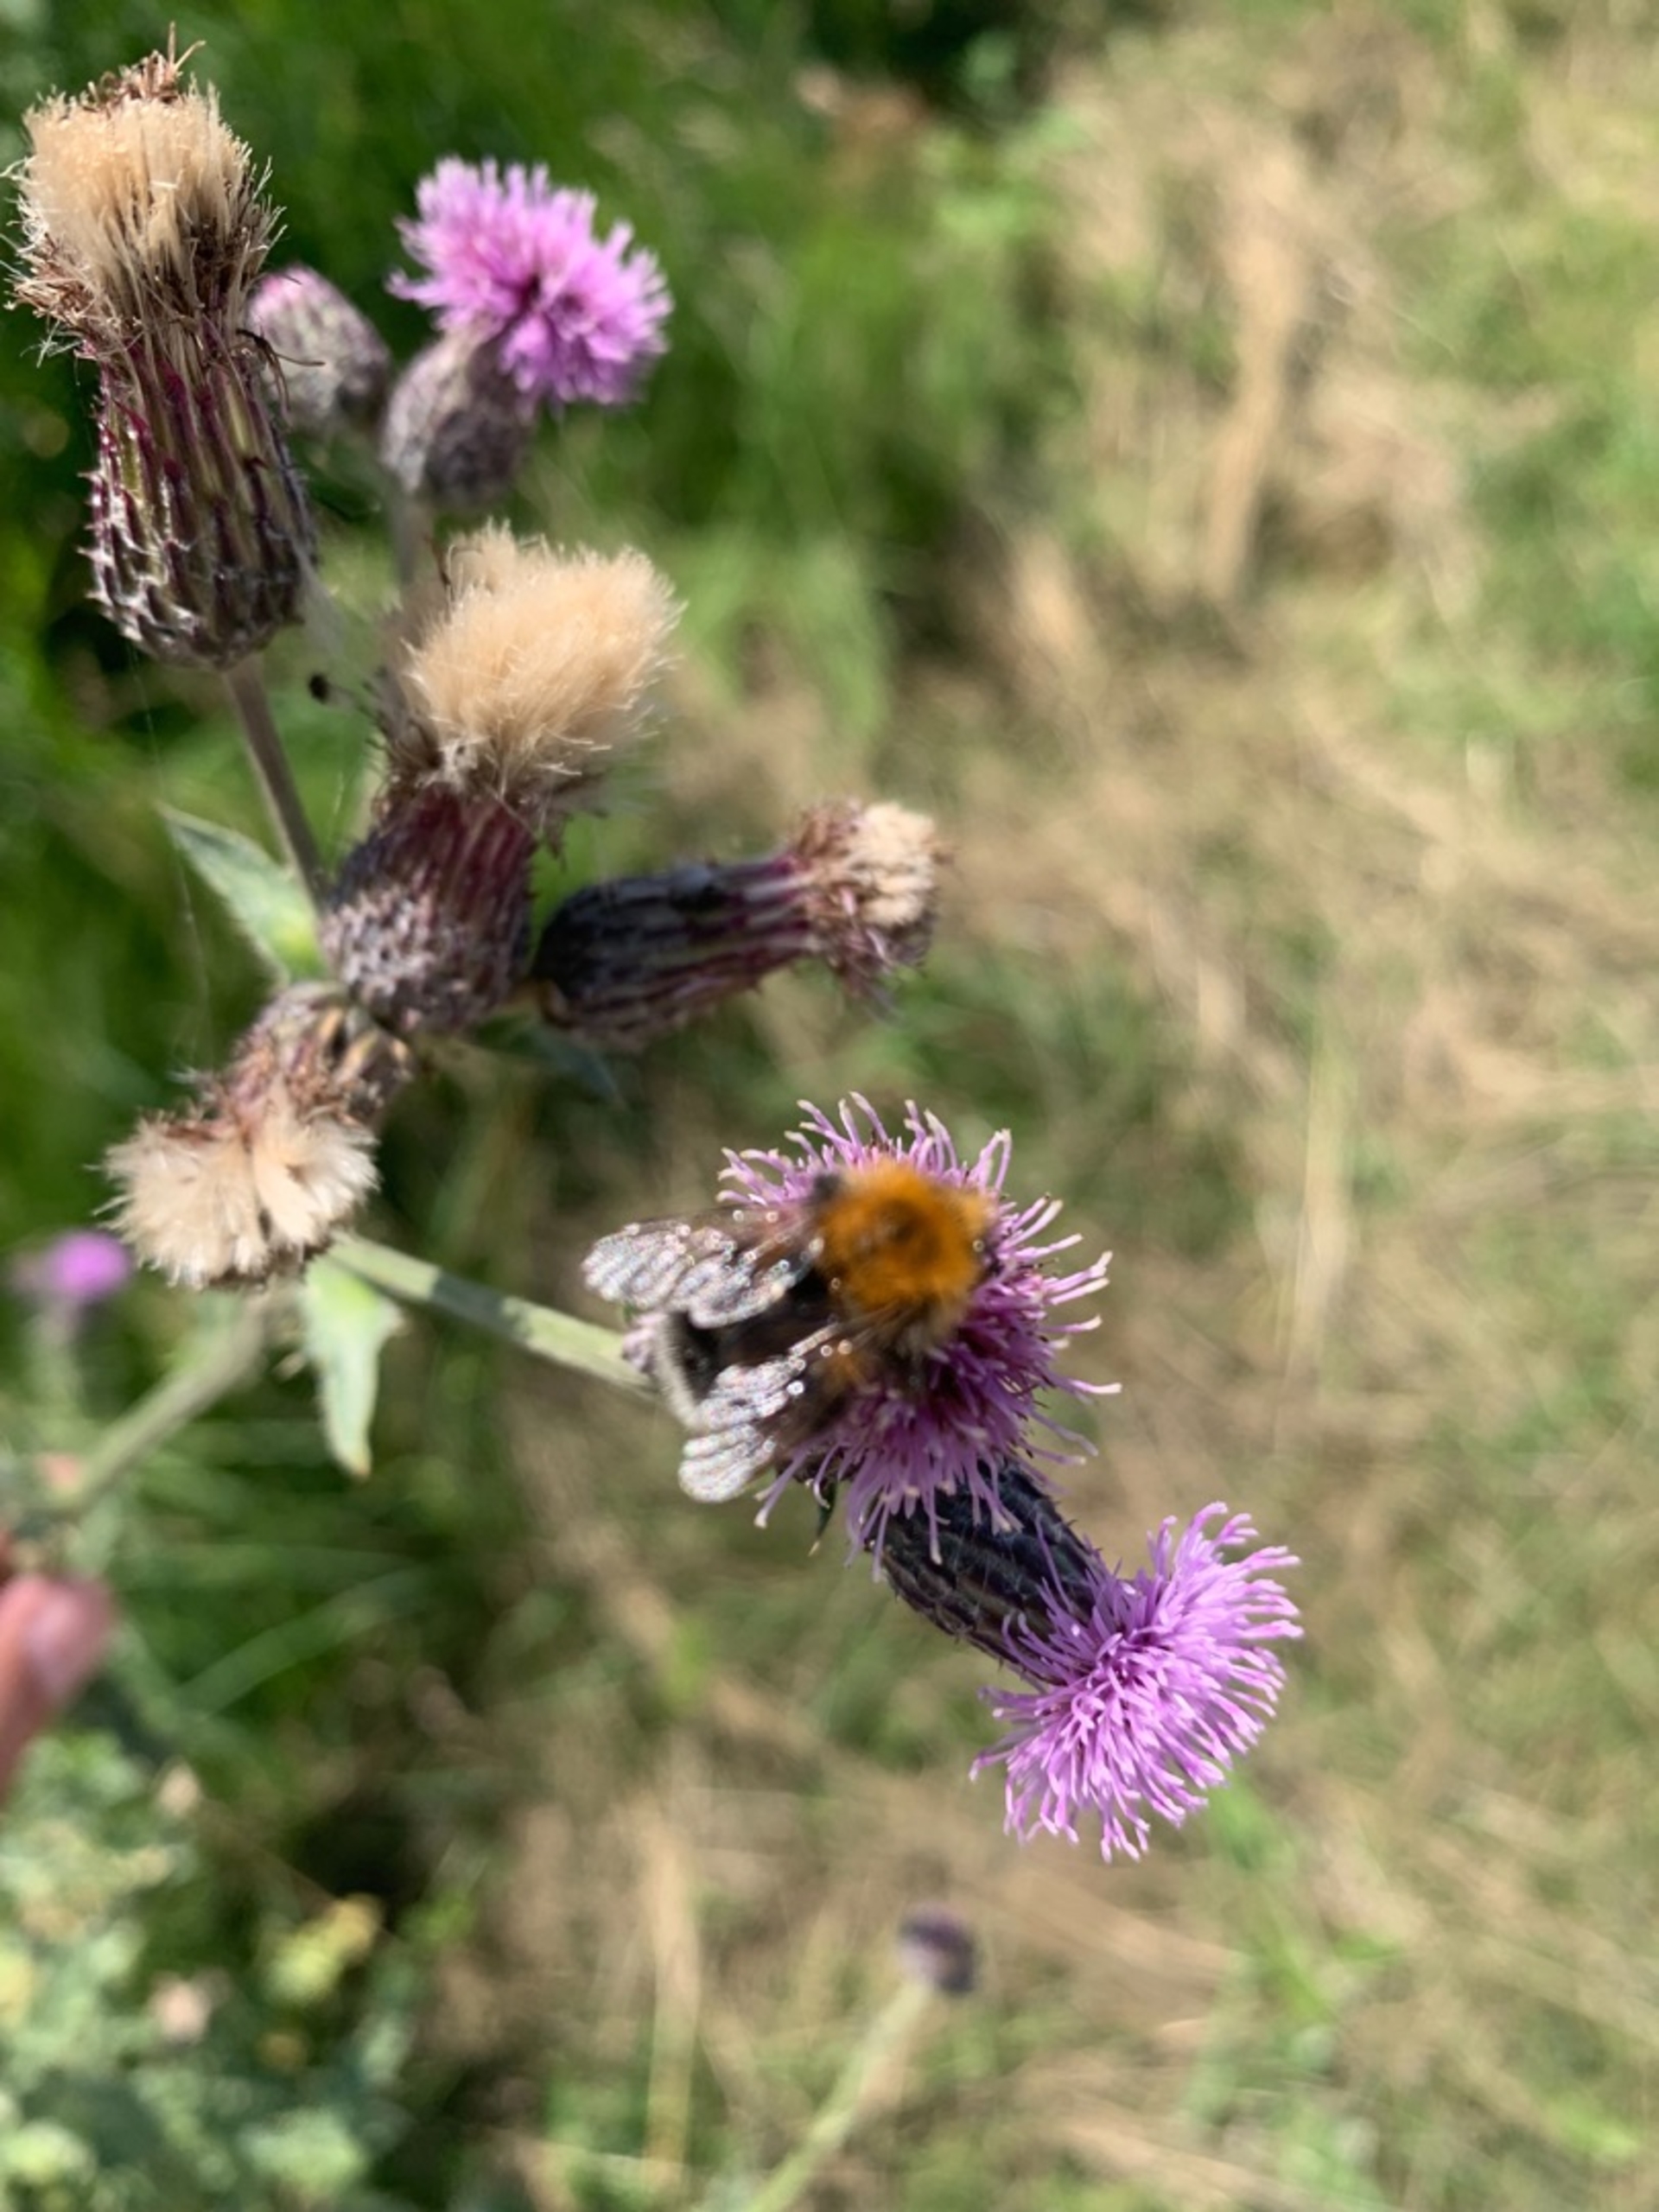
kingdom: Animalia
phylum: Arthropoda
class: Insecta
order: Hymenoptera
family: Apidae
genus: Bombus
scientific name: Bombus hypnorum
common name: Hushumle
